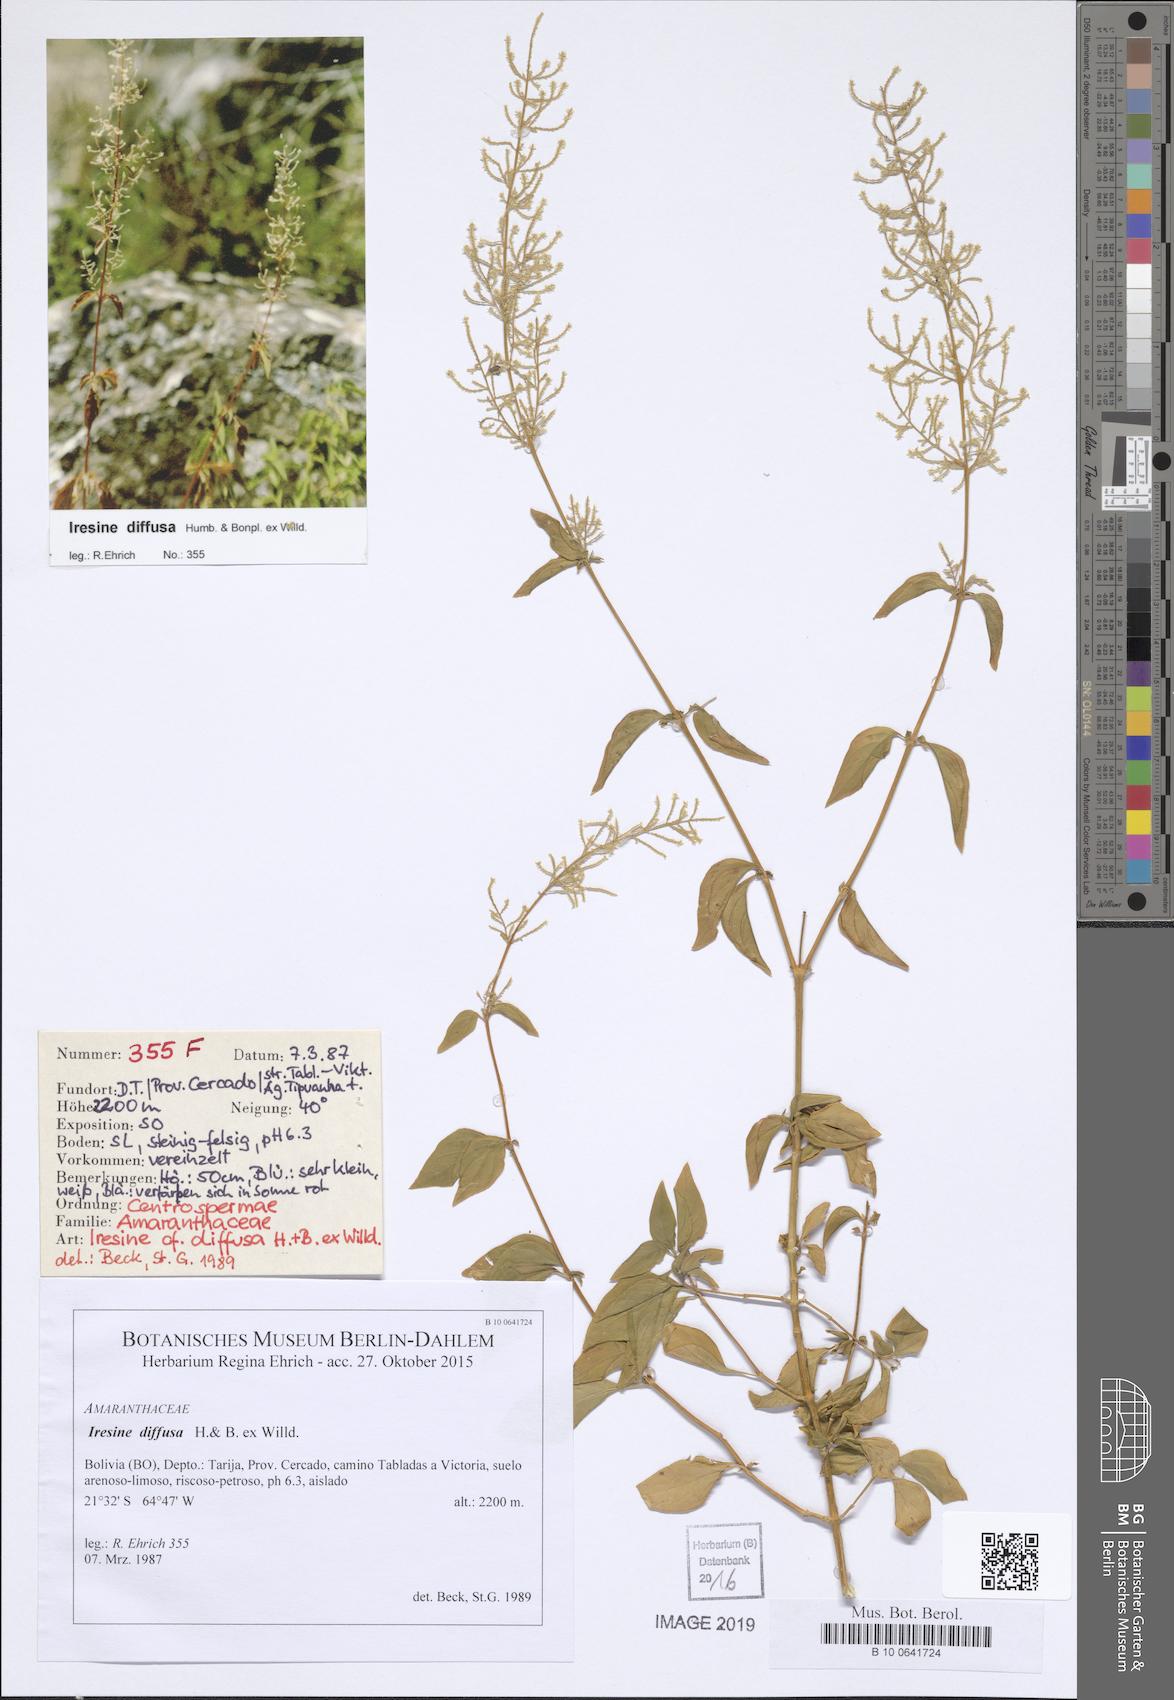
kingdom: Plantae
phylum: Tracheophyta
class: Magnoliopsida
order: Caryophyllales
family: Amaranthaceae
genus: Iresine
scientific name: Iresine diffusa
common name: Juba's-bush
